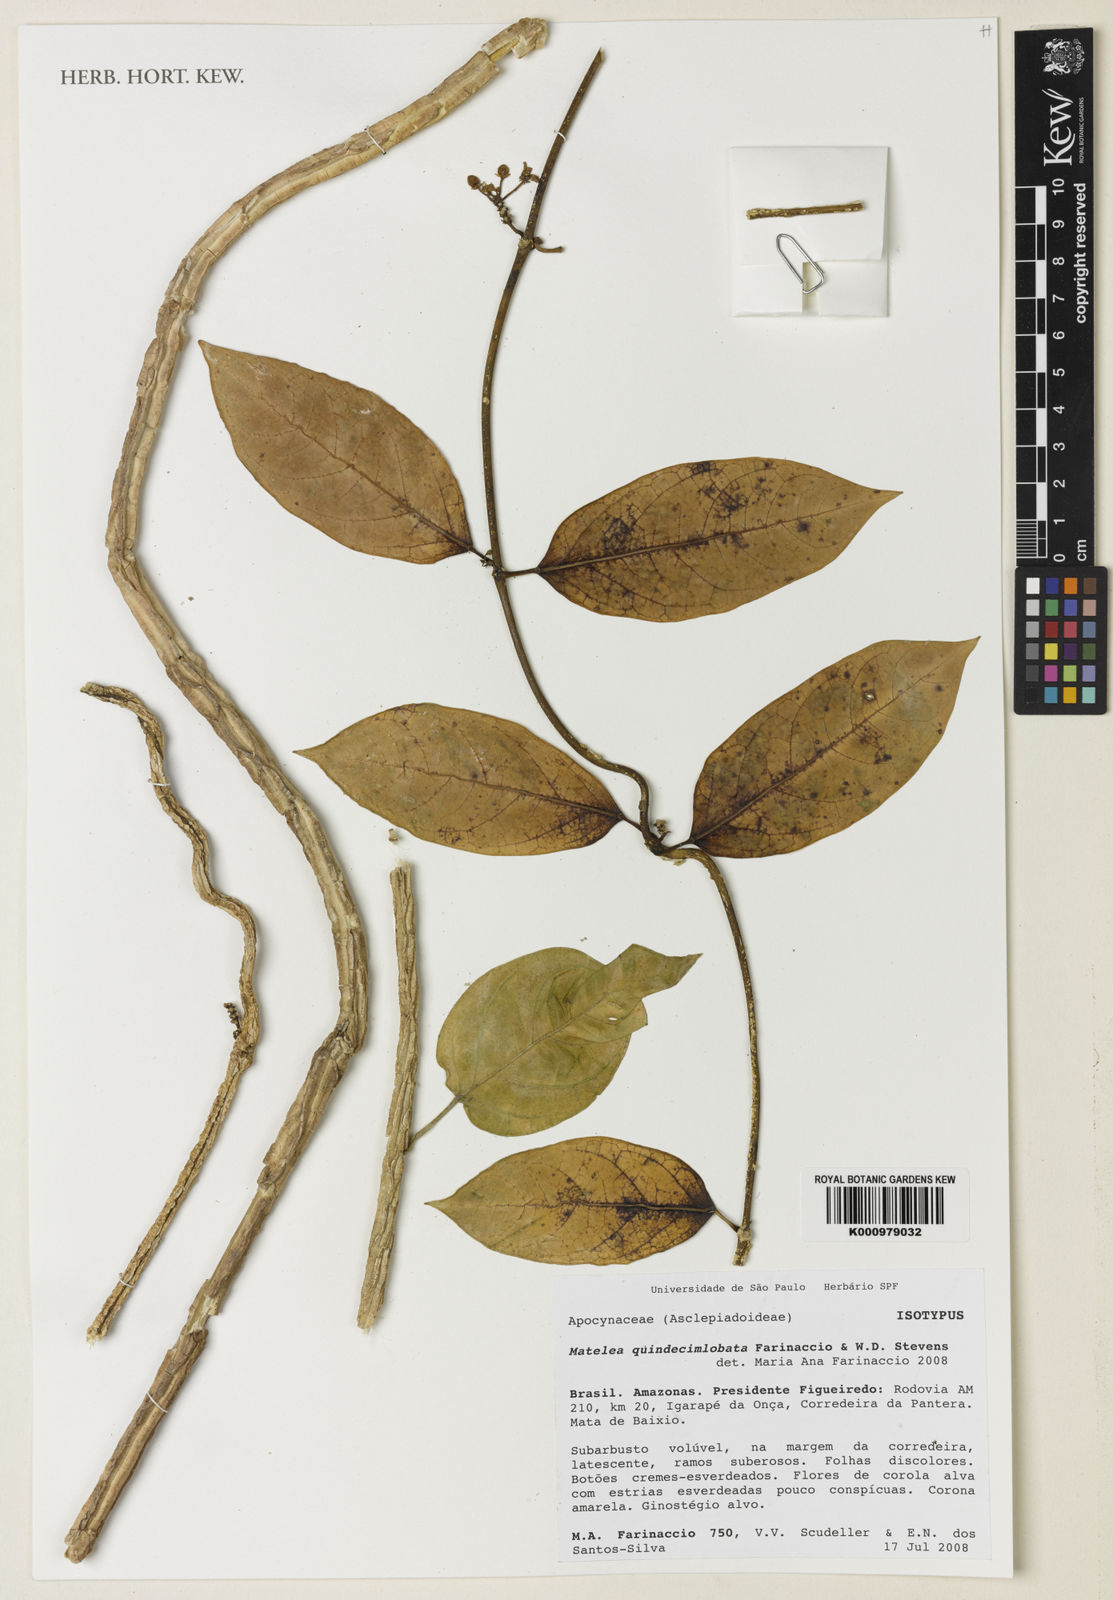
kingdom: Plantae
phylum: Tracheophyta
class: Magnoliopsida
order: Gentianales
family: Apocynaceae
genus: Matelea
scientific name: Matelea quindecimlobata
